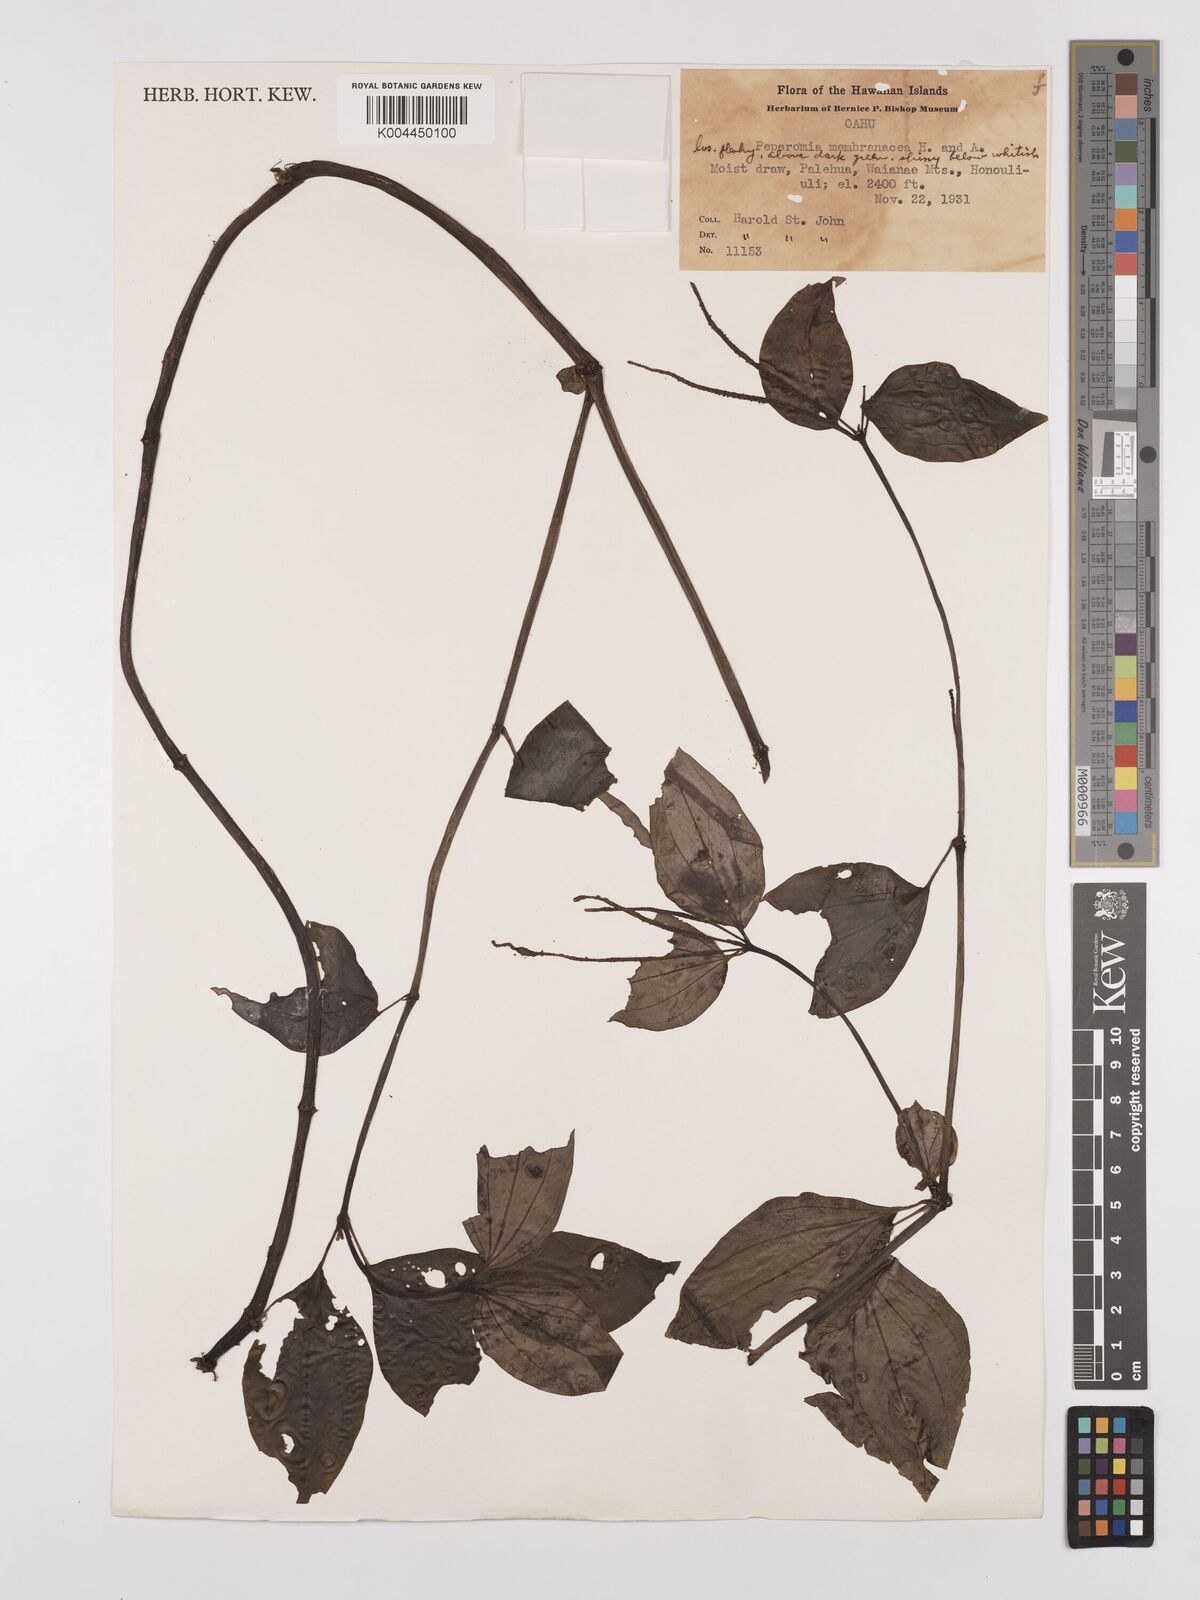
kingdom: Plantae
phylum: Tracheophyta
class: Magnoliopsida
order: Piperales
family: Piperaceae
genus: Peperomia
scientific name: Peperomia membranacea
